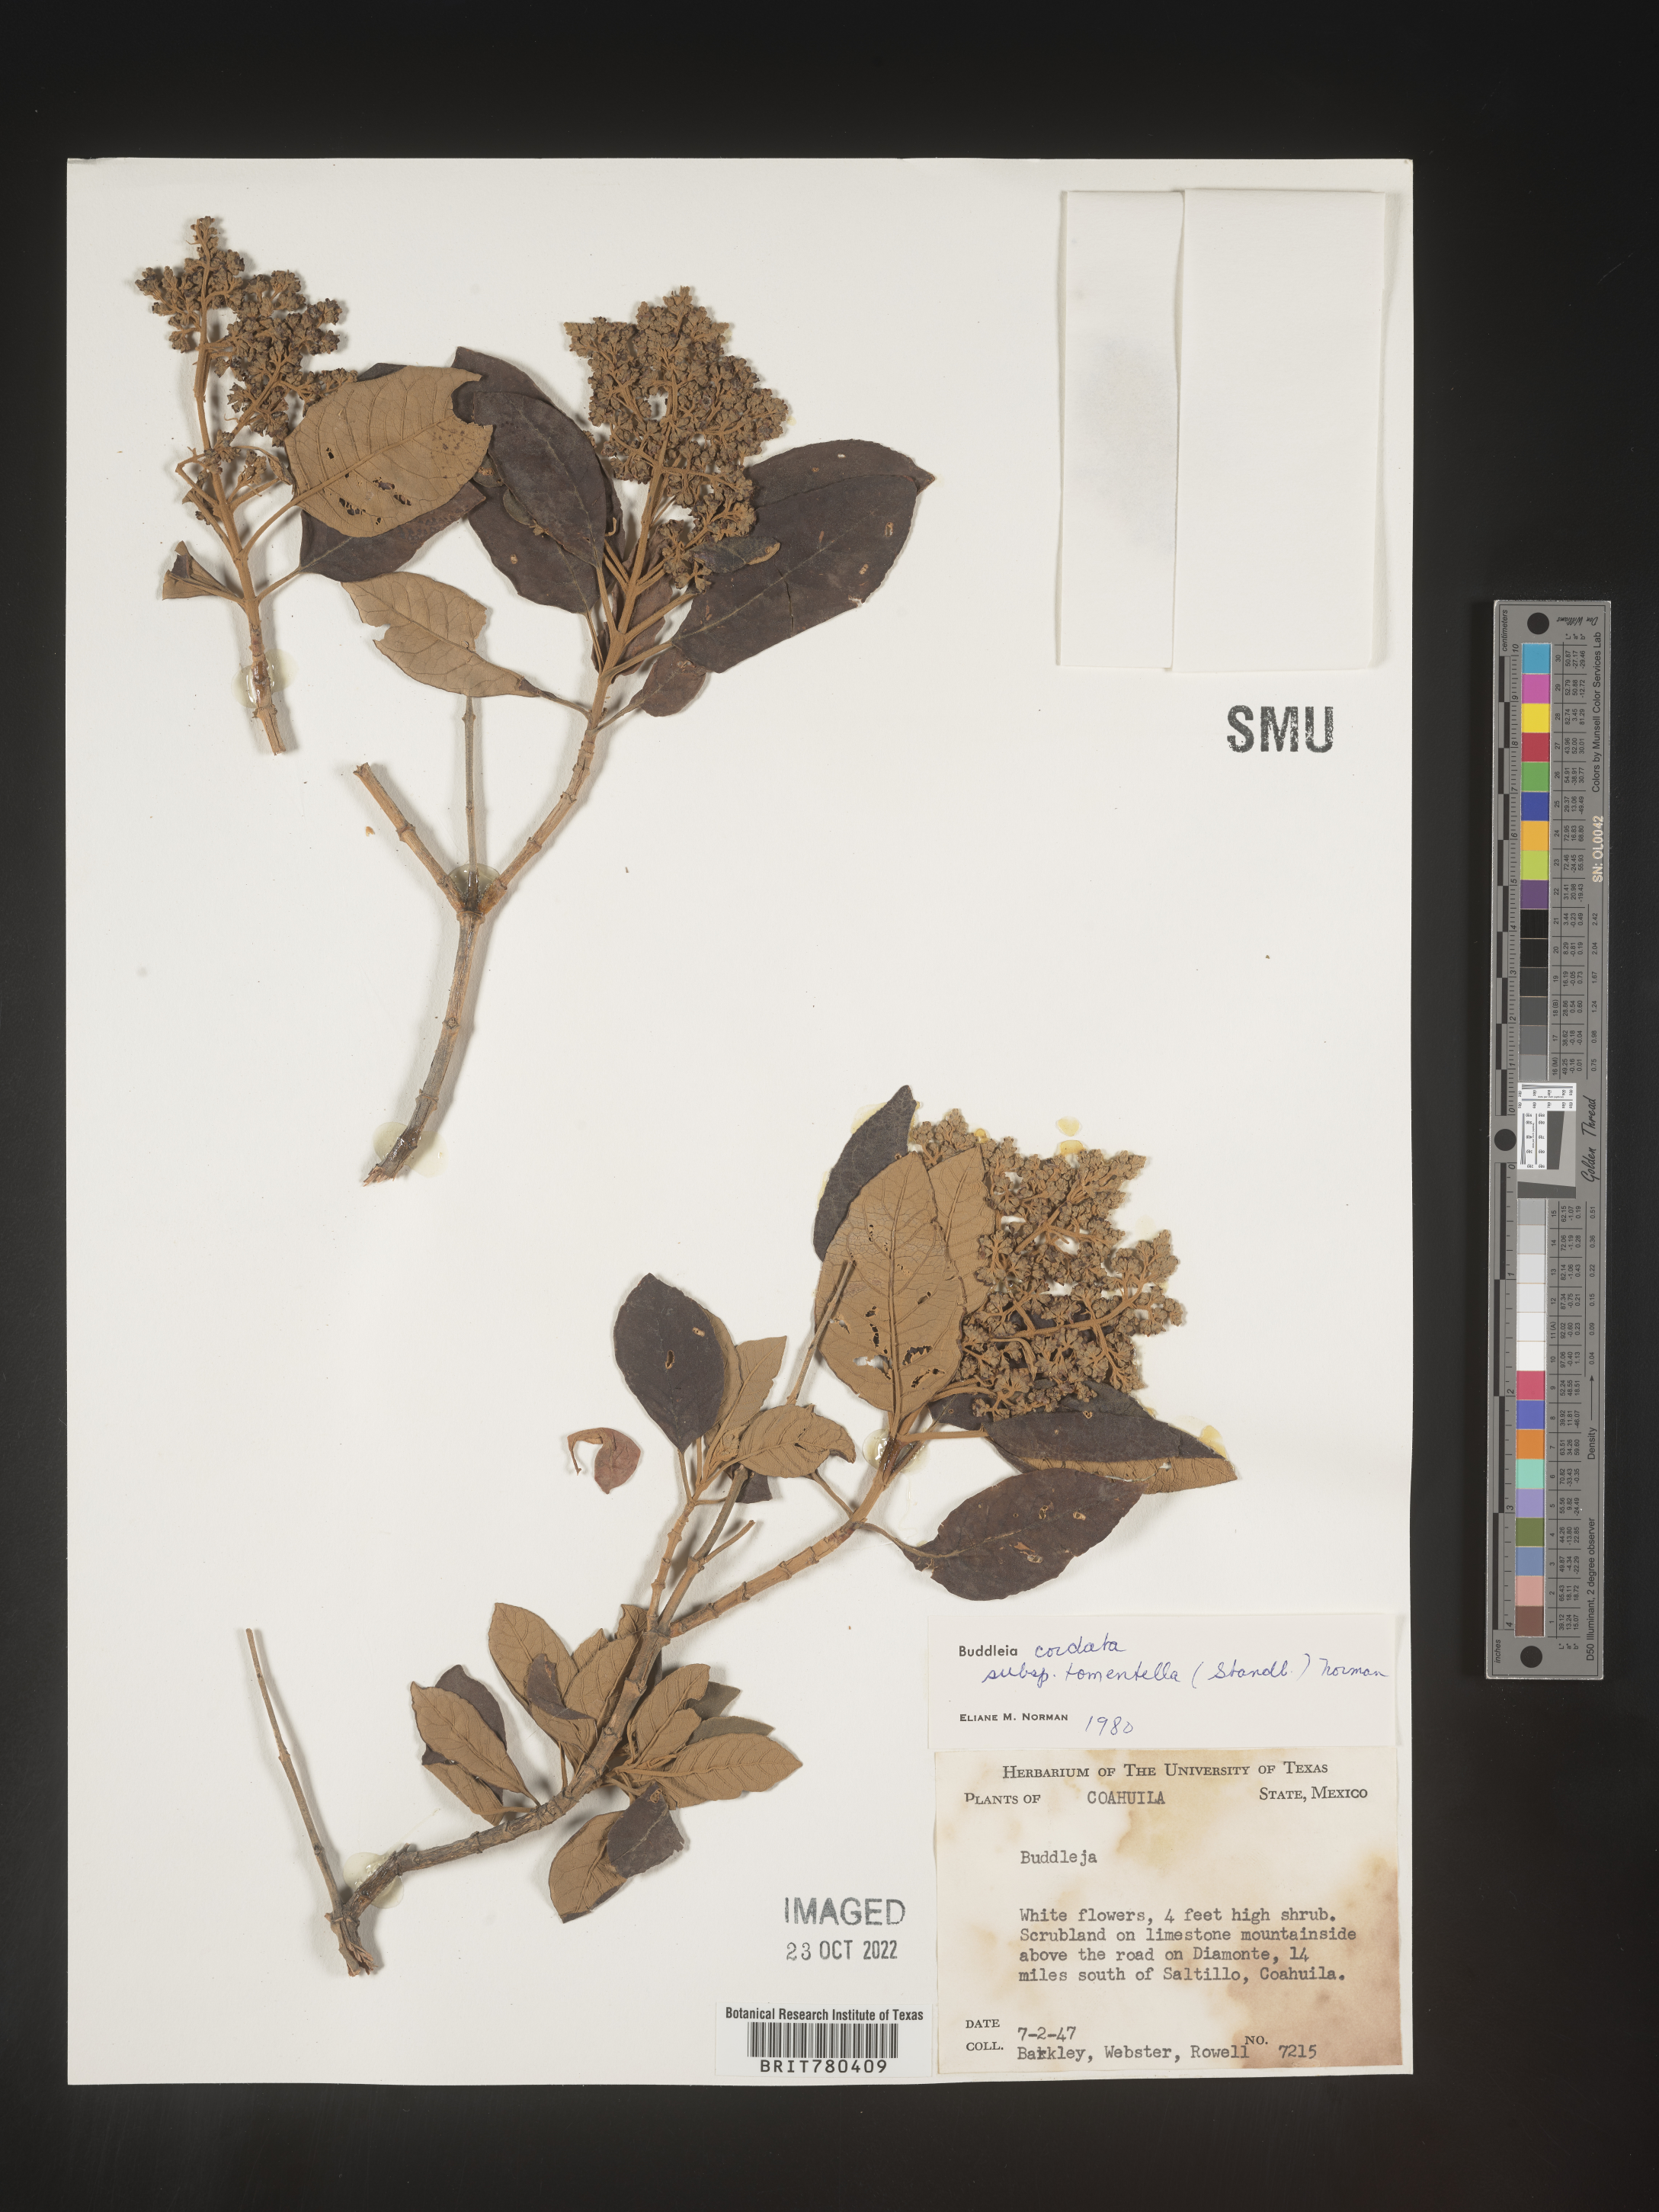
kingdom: Plantae
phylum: Tracheophyta
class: Magnoliopsida
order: Lamiales
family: Scrophulariaceae
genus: Buddleja
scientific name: Buddleja
